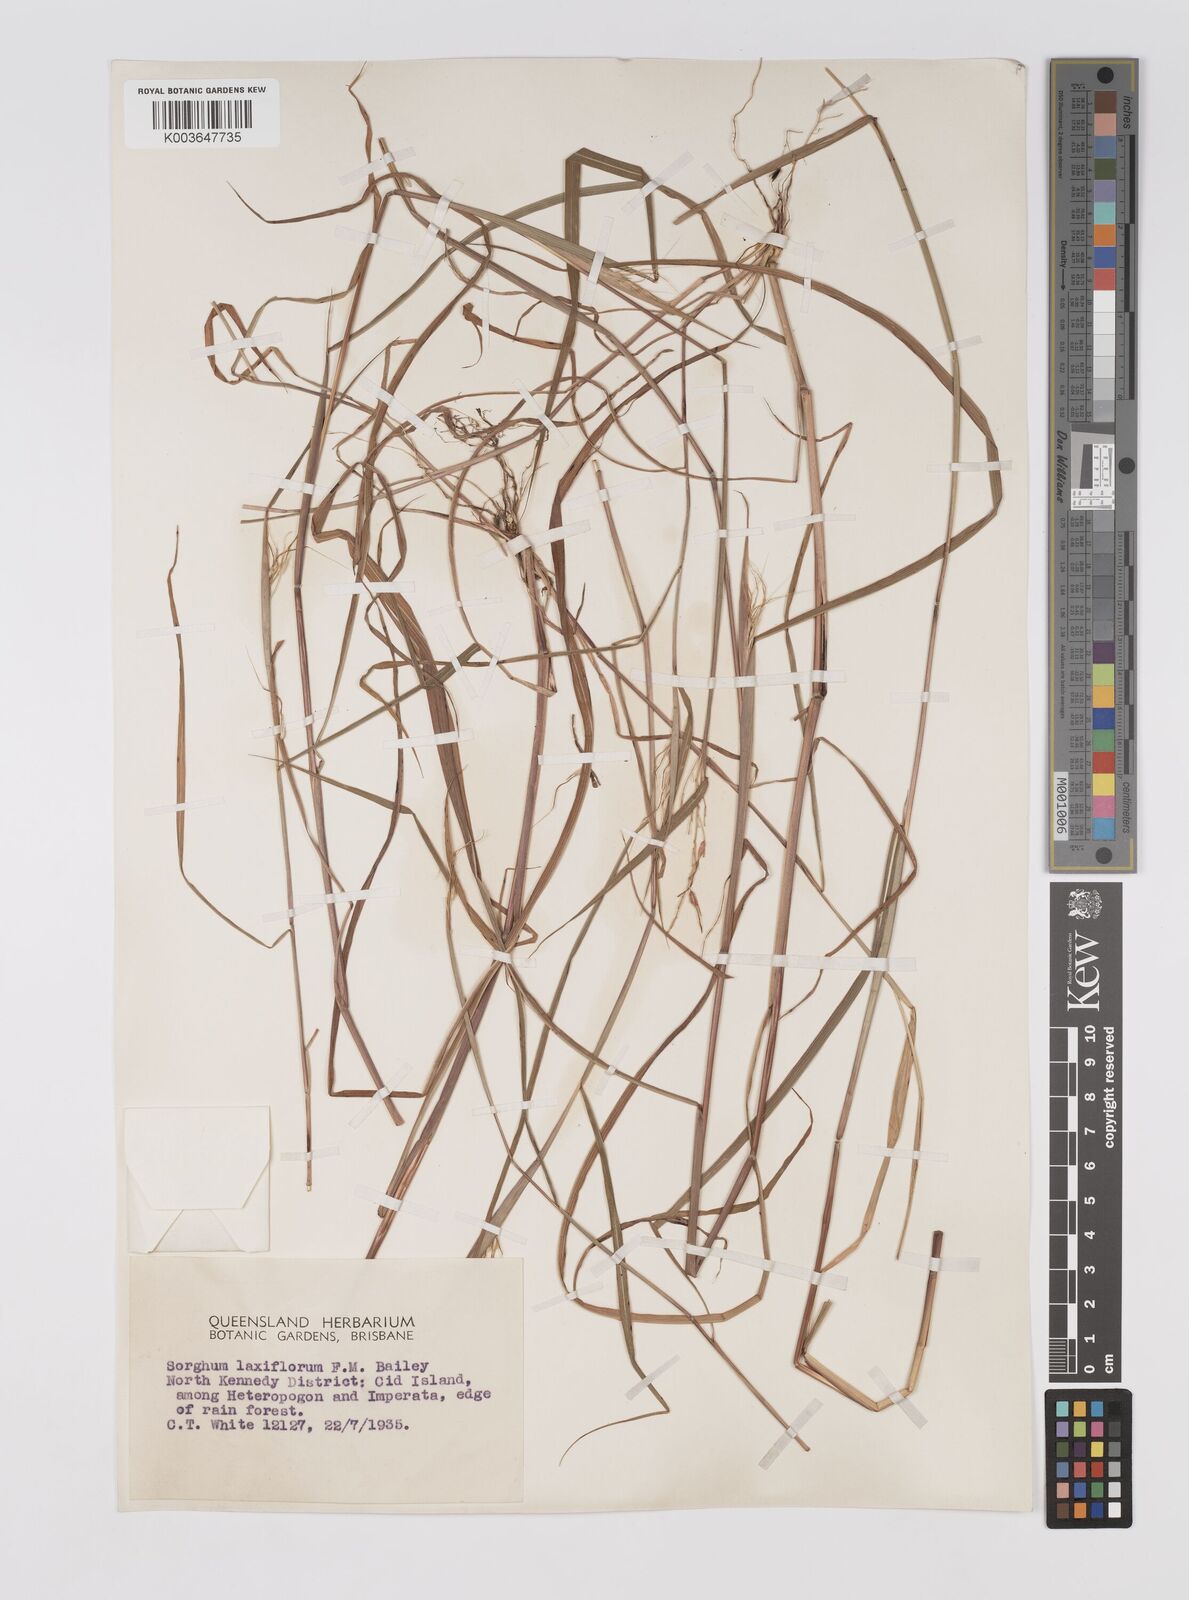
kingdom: Plantae
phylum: Tracheophyta
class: Liliopsida
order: Poales
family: Poaceae
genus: Sorghum
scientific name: Sorghum laxiflorum
